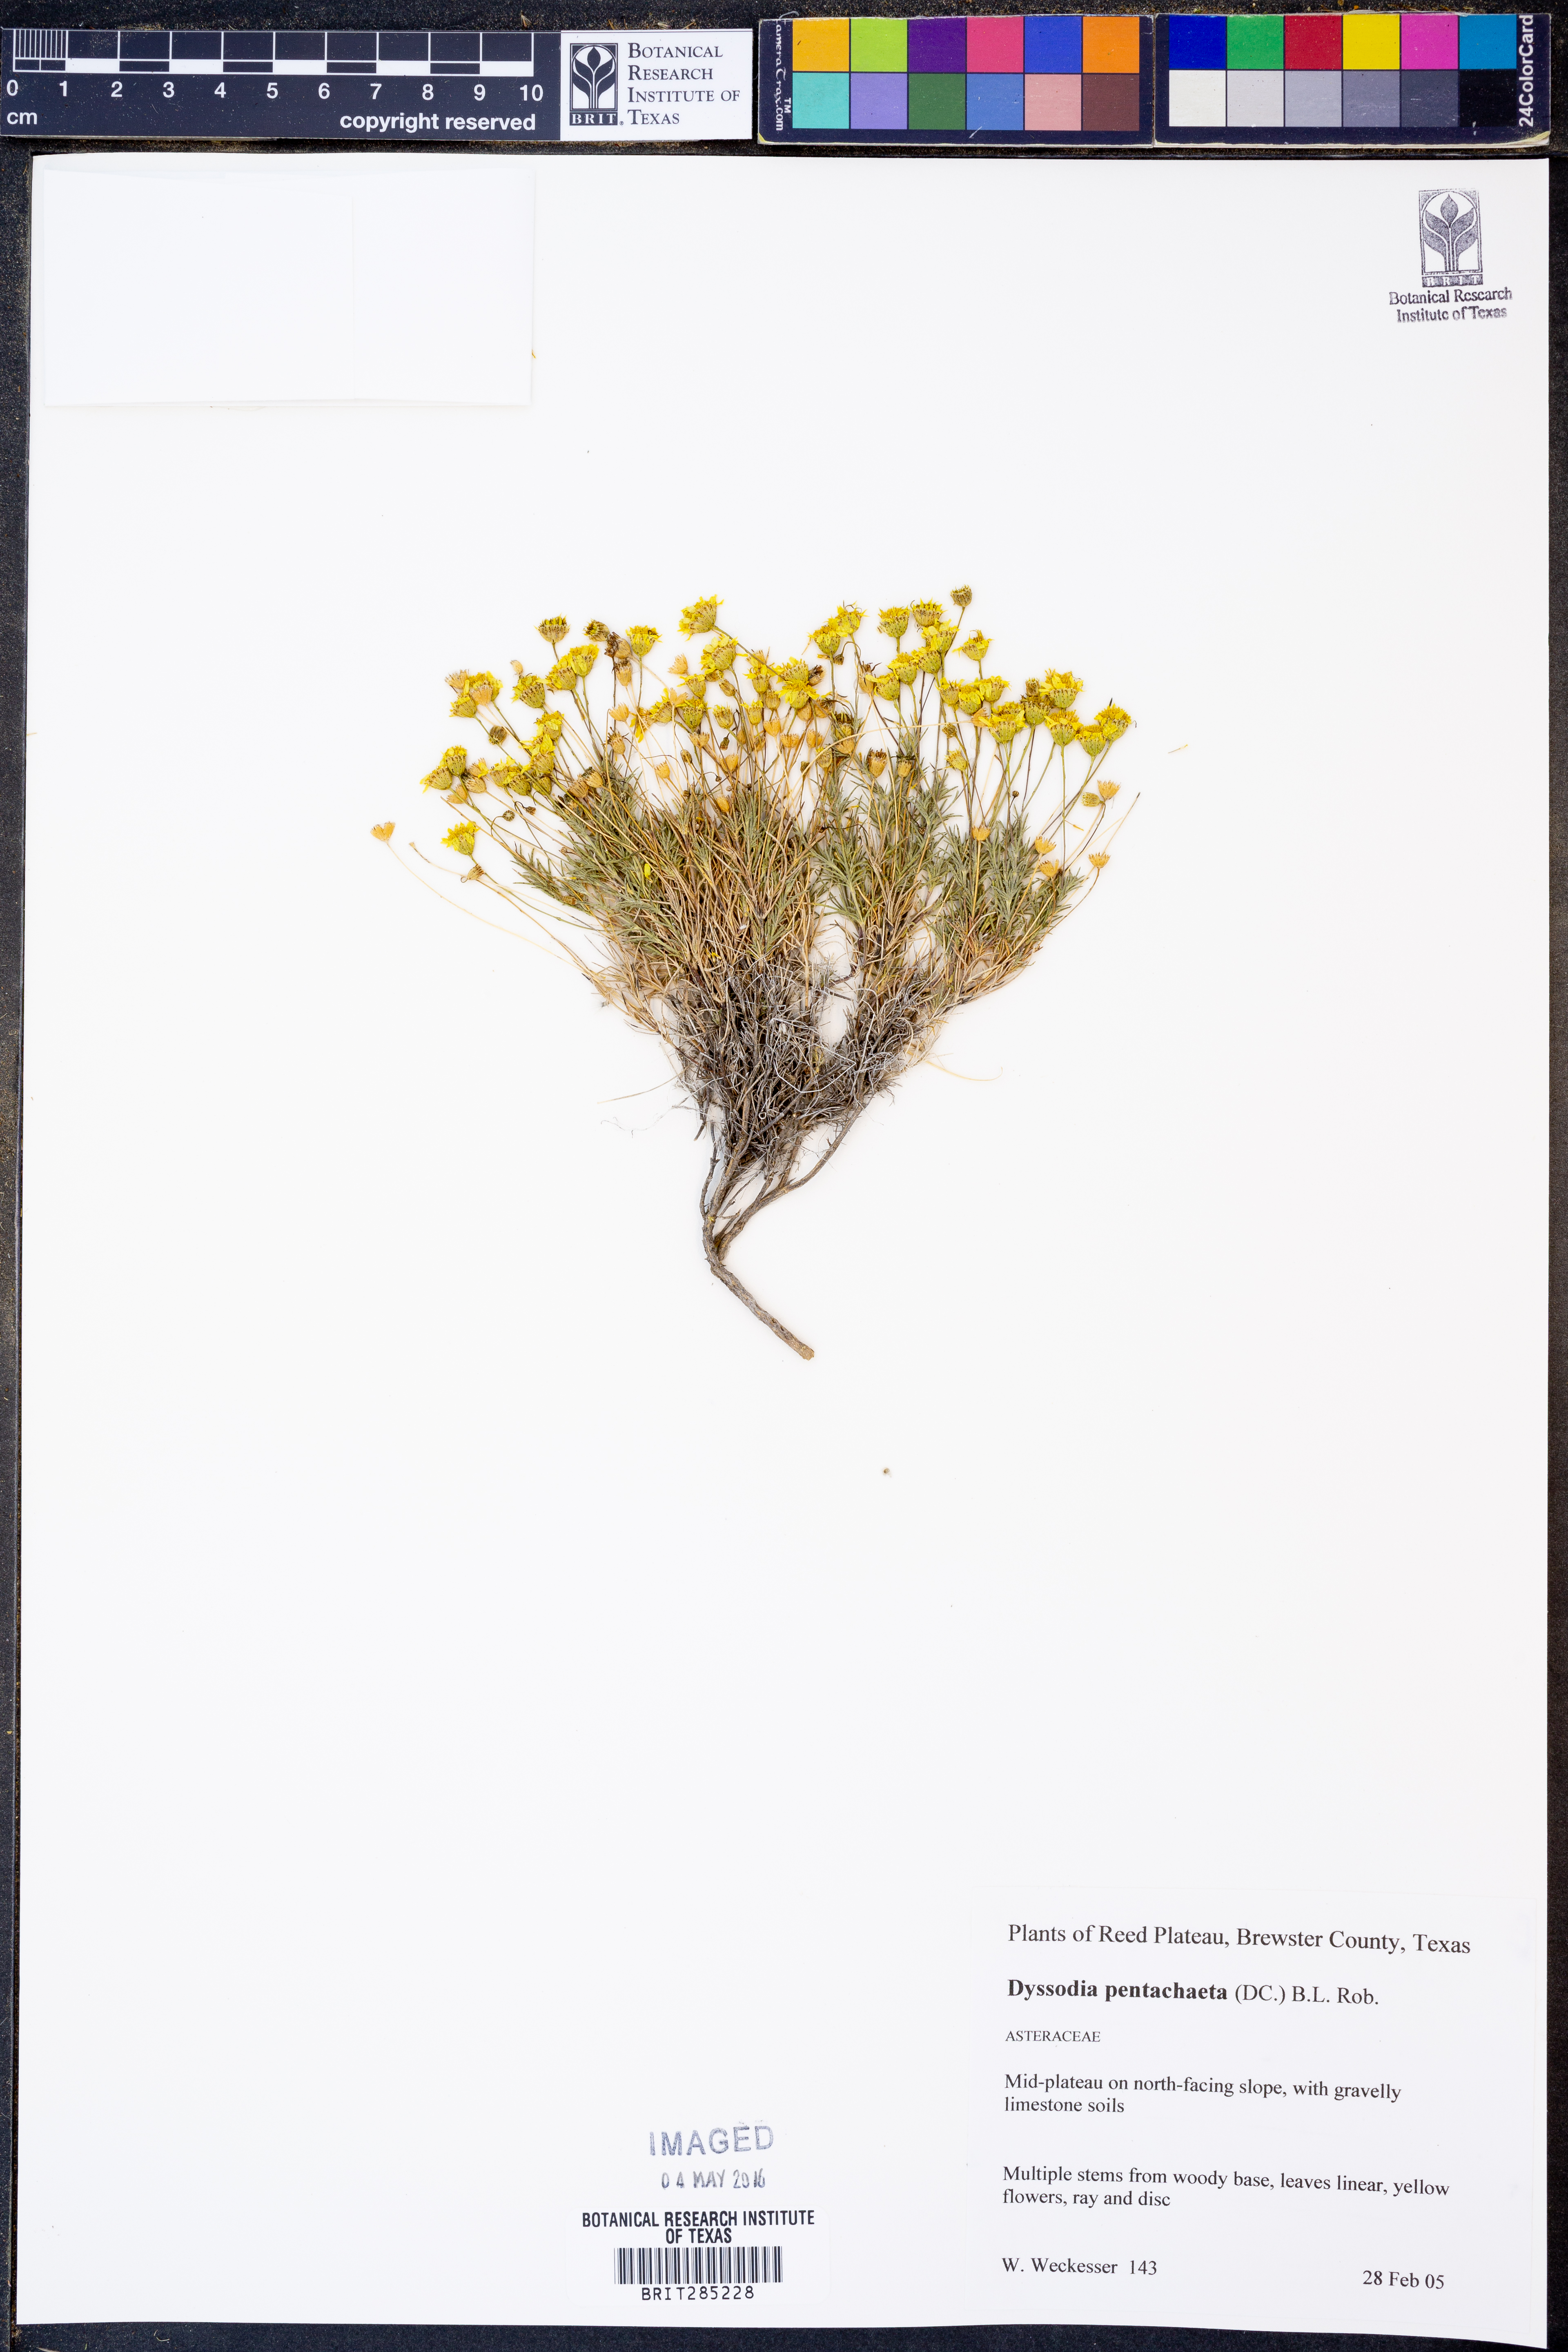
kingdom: Plantae
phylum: Tracheophyta
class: Magnoliopsida
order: Asterales
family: Asteraceae
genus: Thymophylla
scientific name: Thymophylla pentachaeta
